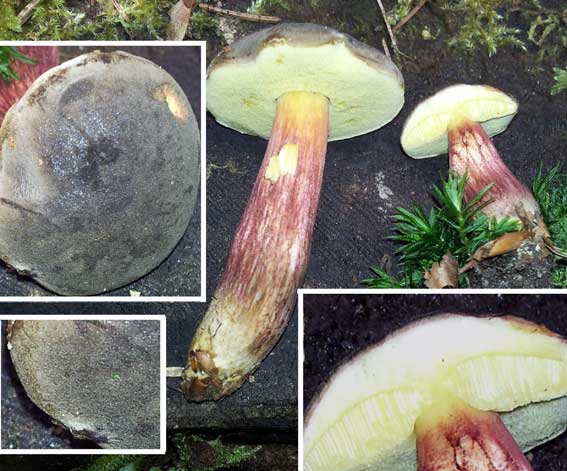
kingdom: Fungi
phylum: Basidiomycota
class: Agaricomycetes
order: Boletales
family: Boletaceae
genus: Xerocomellus
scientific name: Xerocomellus pruinatus
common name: dugget rørhat
